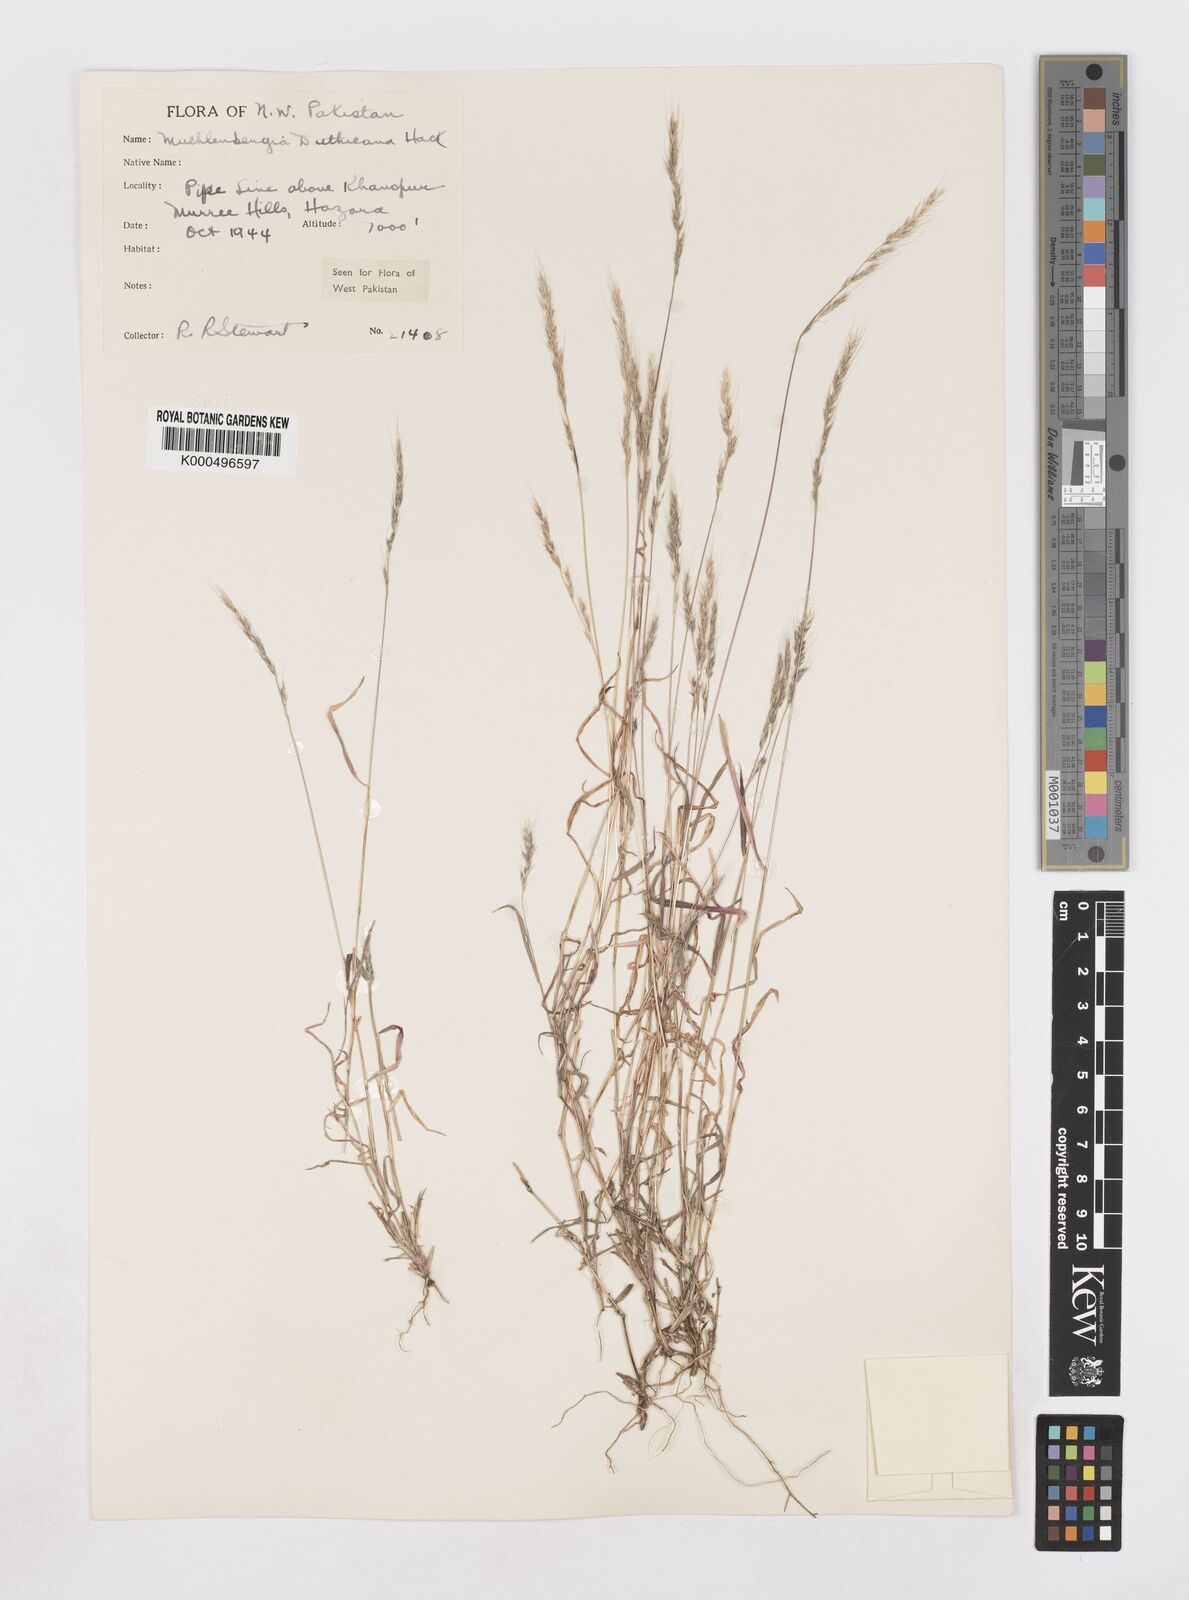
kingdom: Plantae
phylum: Tracheophyta
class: Liliopsida
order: Poales
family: Poaceae
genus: Muhlenbergia
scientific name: Muhlenbergia duthieana
